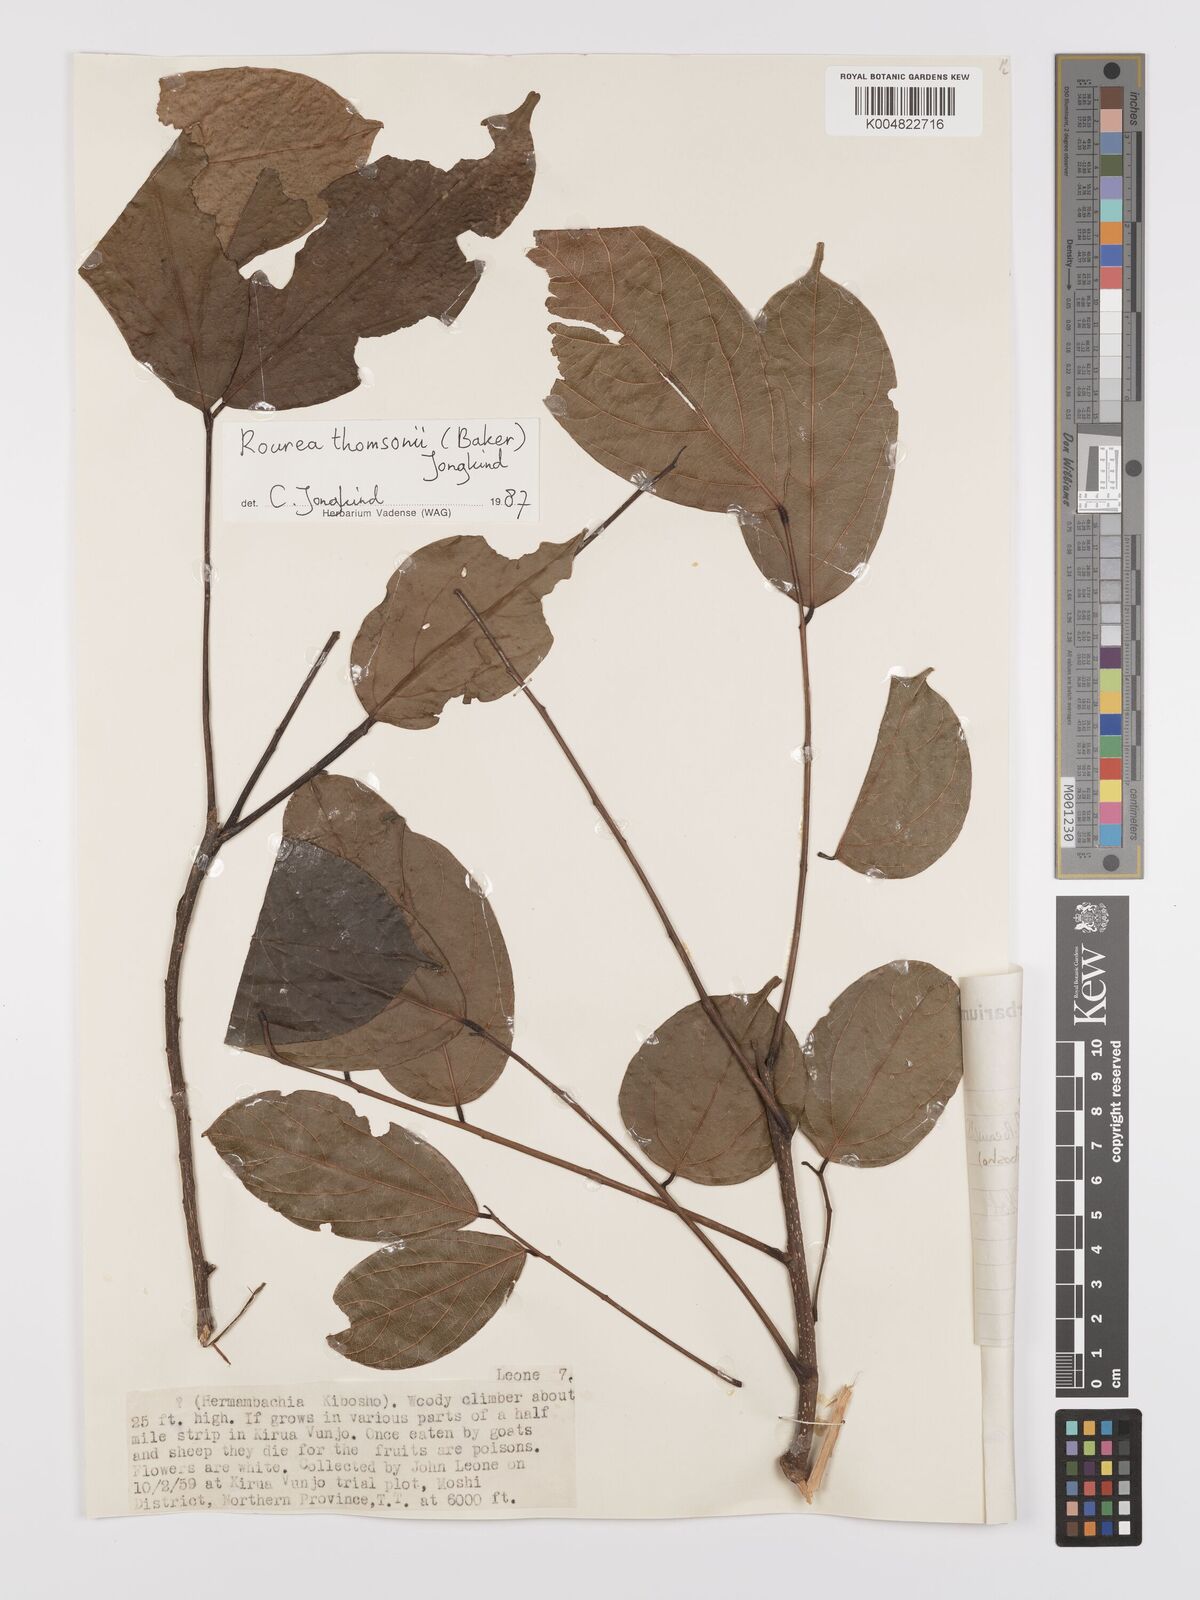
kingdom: Plantae
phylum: Tracheophyta
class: Magnoliopsida
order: Oxalidales
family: Connaraceae
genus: Rourea
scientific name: Rourea pinnata
